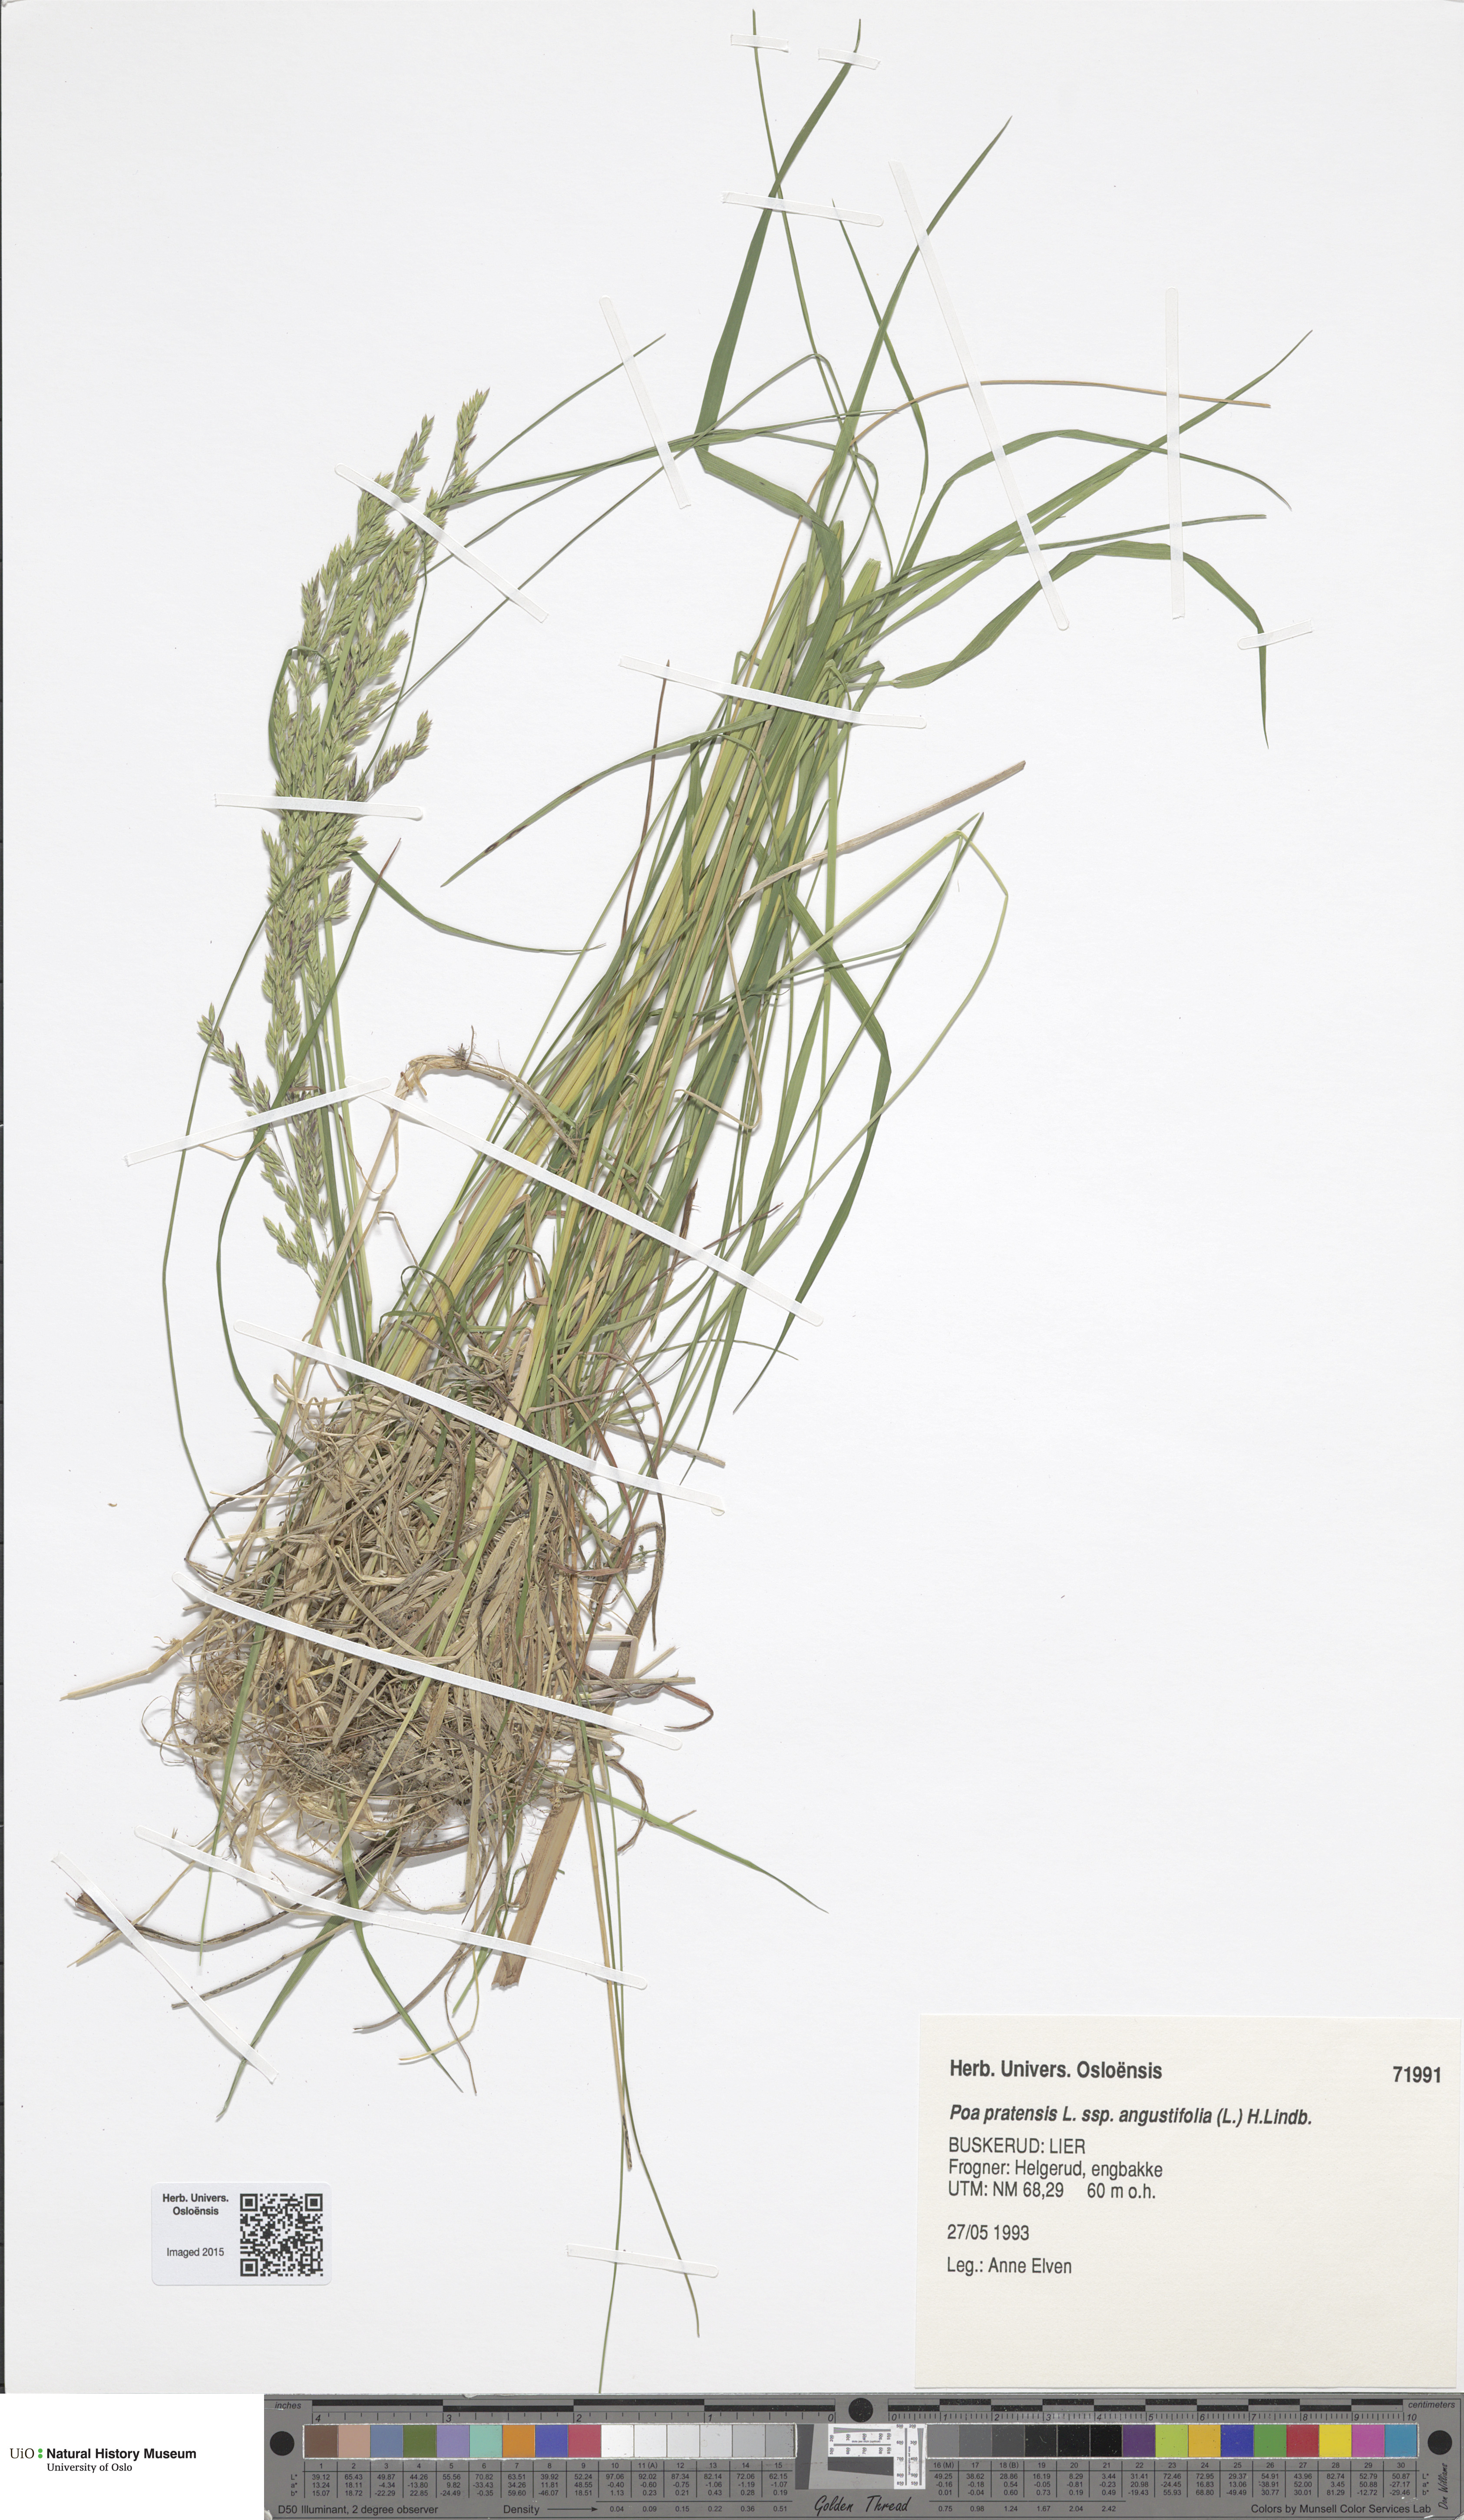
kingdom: Plantae
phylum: Tracheophyta
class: Liliopsida
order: Poales
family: Poaceae
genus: Poa
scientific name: Poa angustifolia
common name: Narrow-leaved meadow-grass
